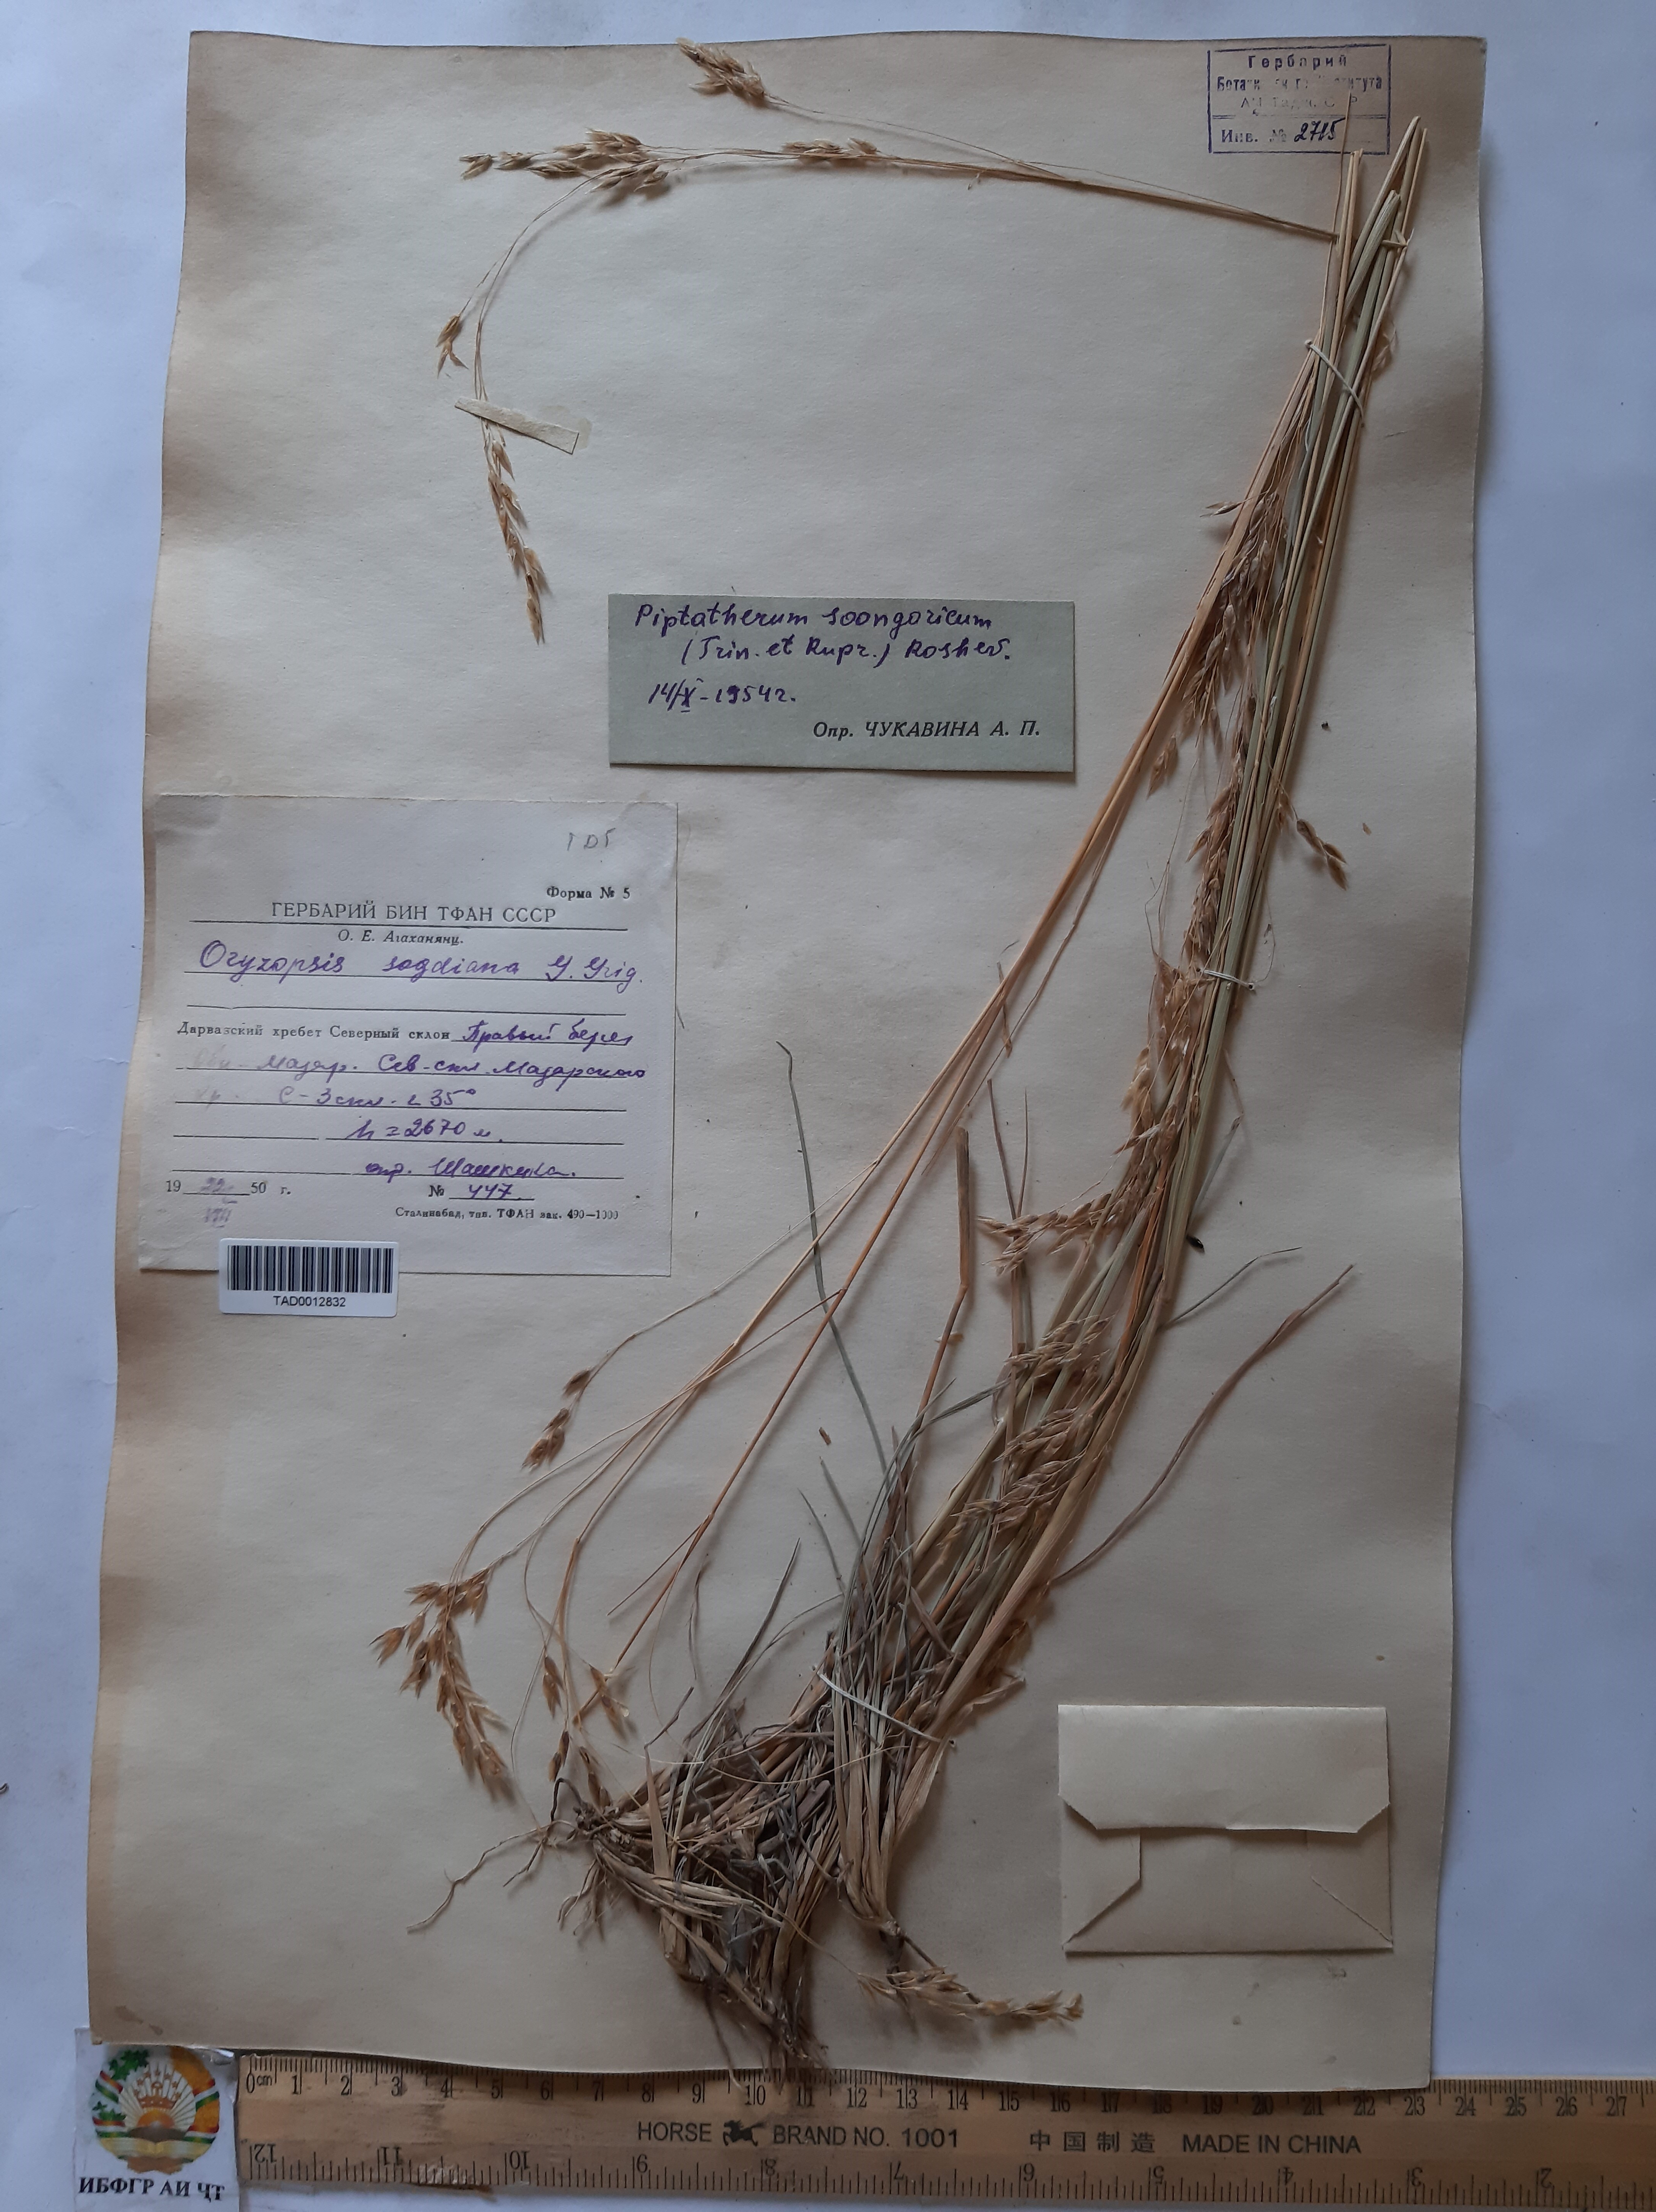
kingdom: Plantae
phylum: Tracheophyta
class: Liliopsida
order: Poales
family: Poaceae
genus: Piptatherum
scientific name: Piptatherum songaricum
